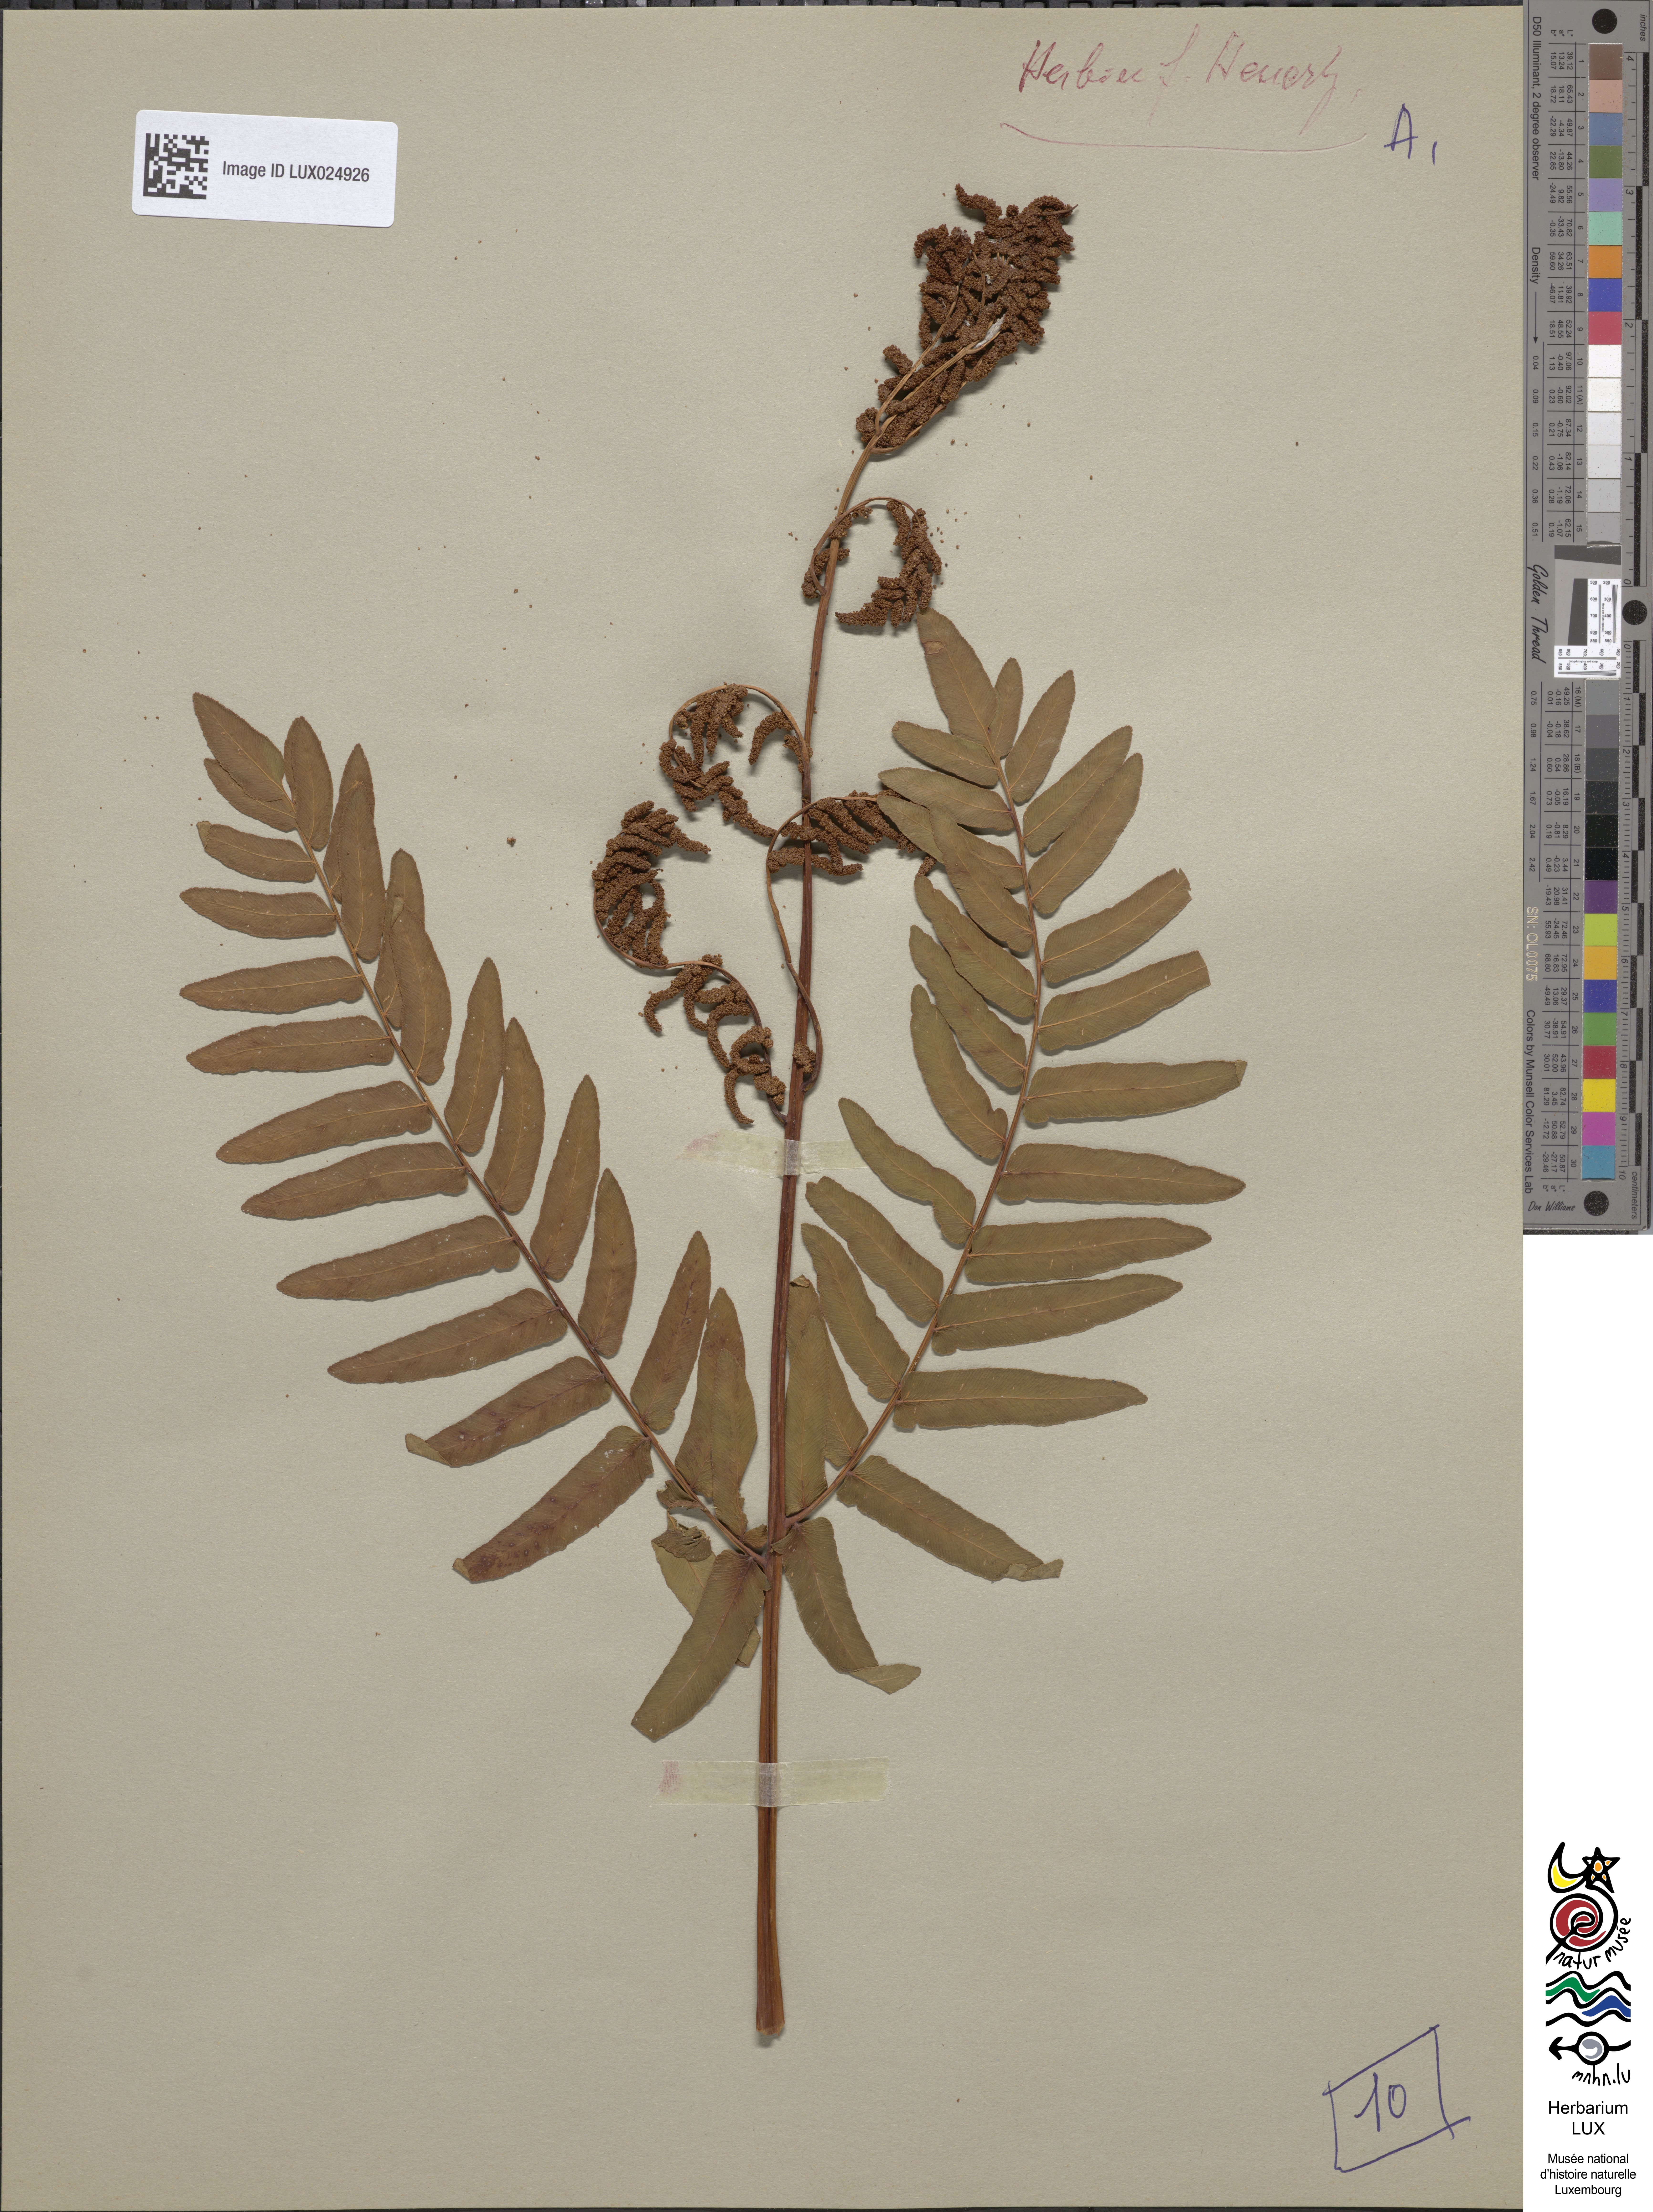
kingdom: Plantae
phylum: Tracheophyta
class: Polypodiopsida
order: Osmundales
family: Osmundaceae
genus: Osmunda
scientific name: Osmunda regalis
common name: Royal fern
